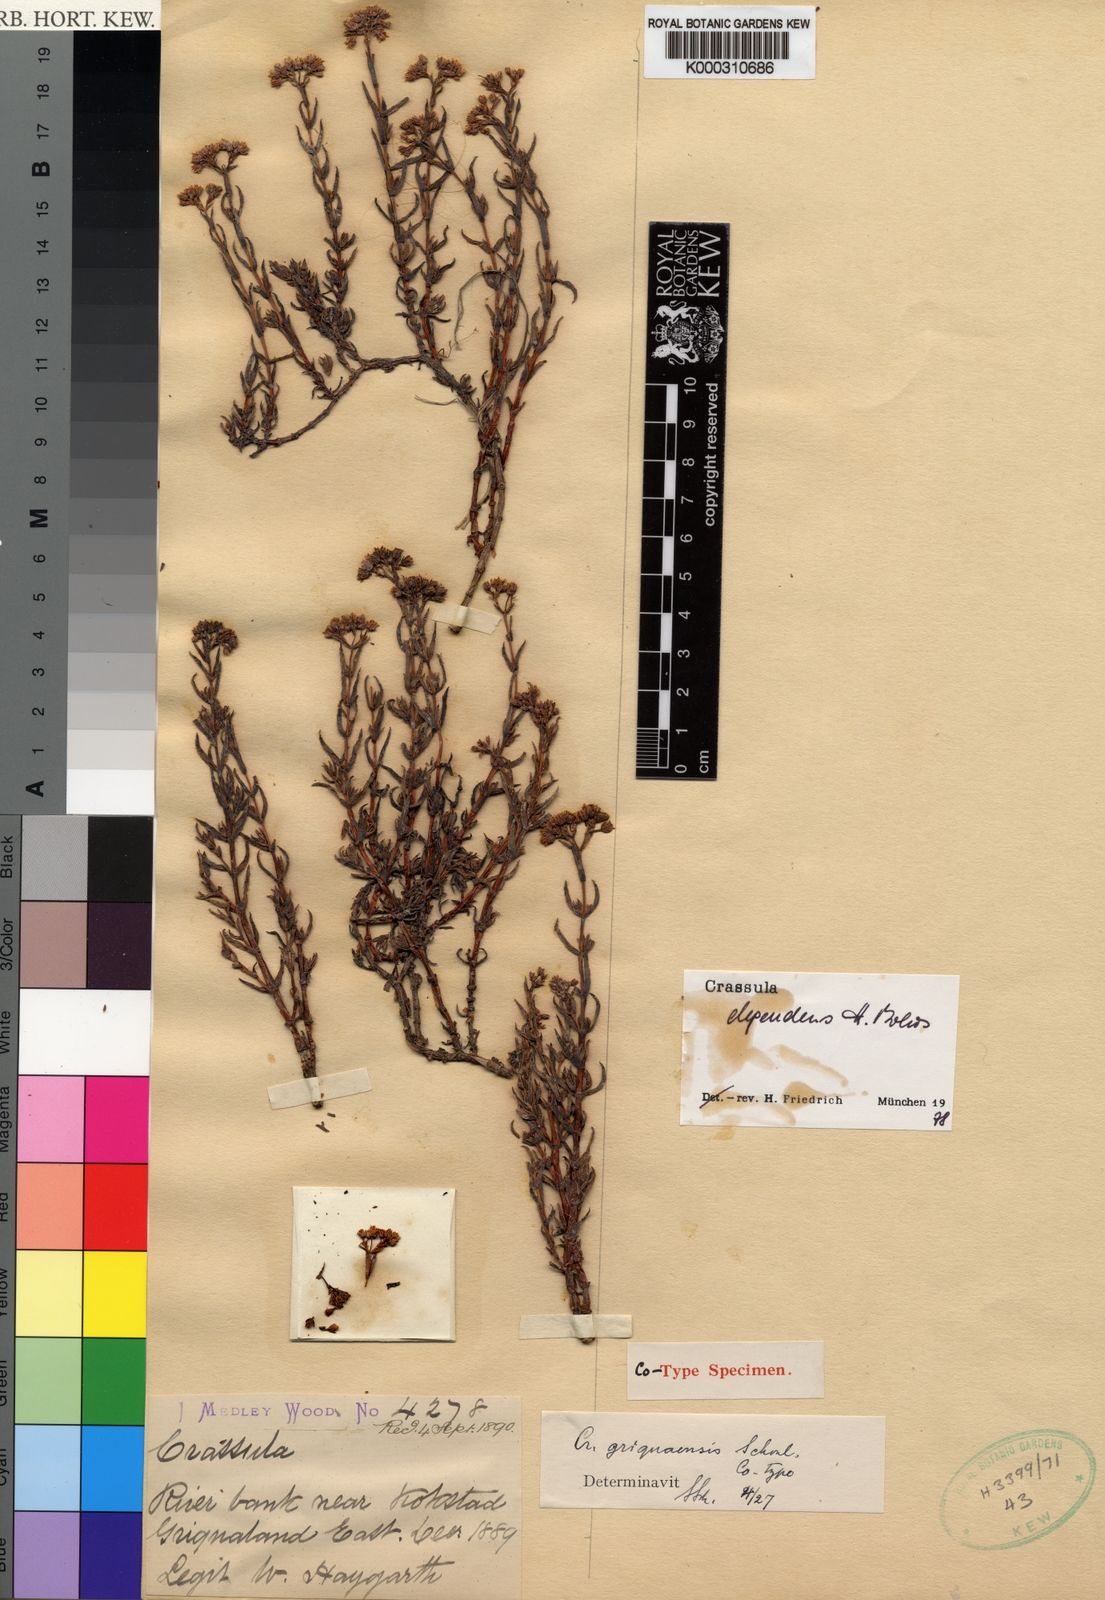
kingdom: Plantae
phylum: Tracheophyta
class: Magnoliopsida
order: Saxifragales
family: Crassulaceae
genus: Crassula
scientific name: Crassula dependens
